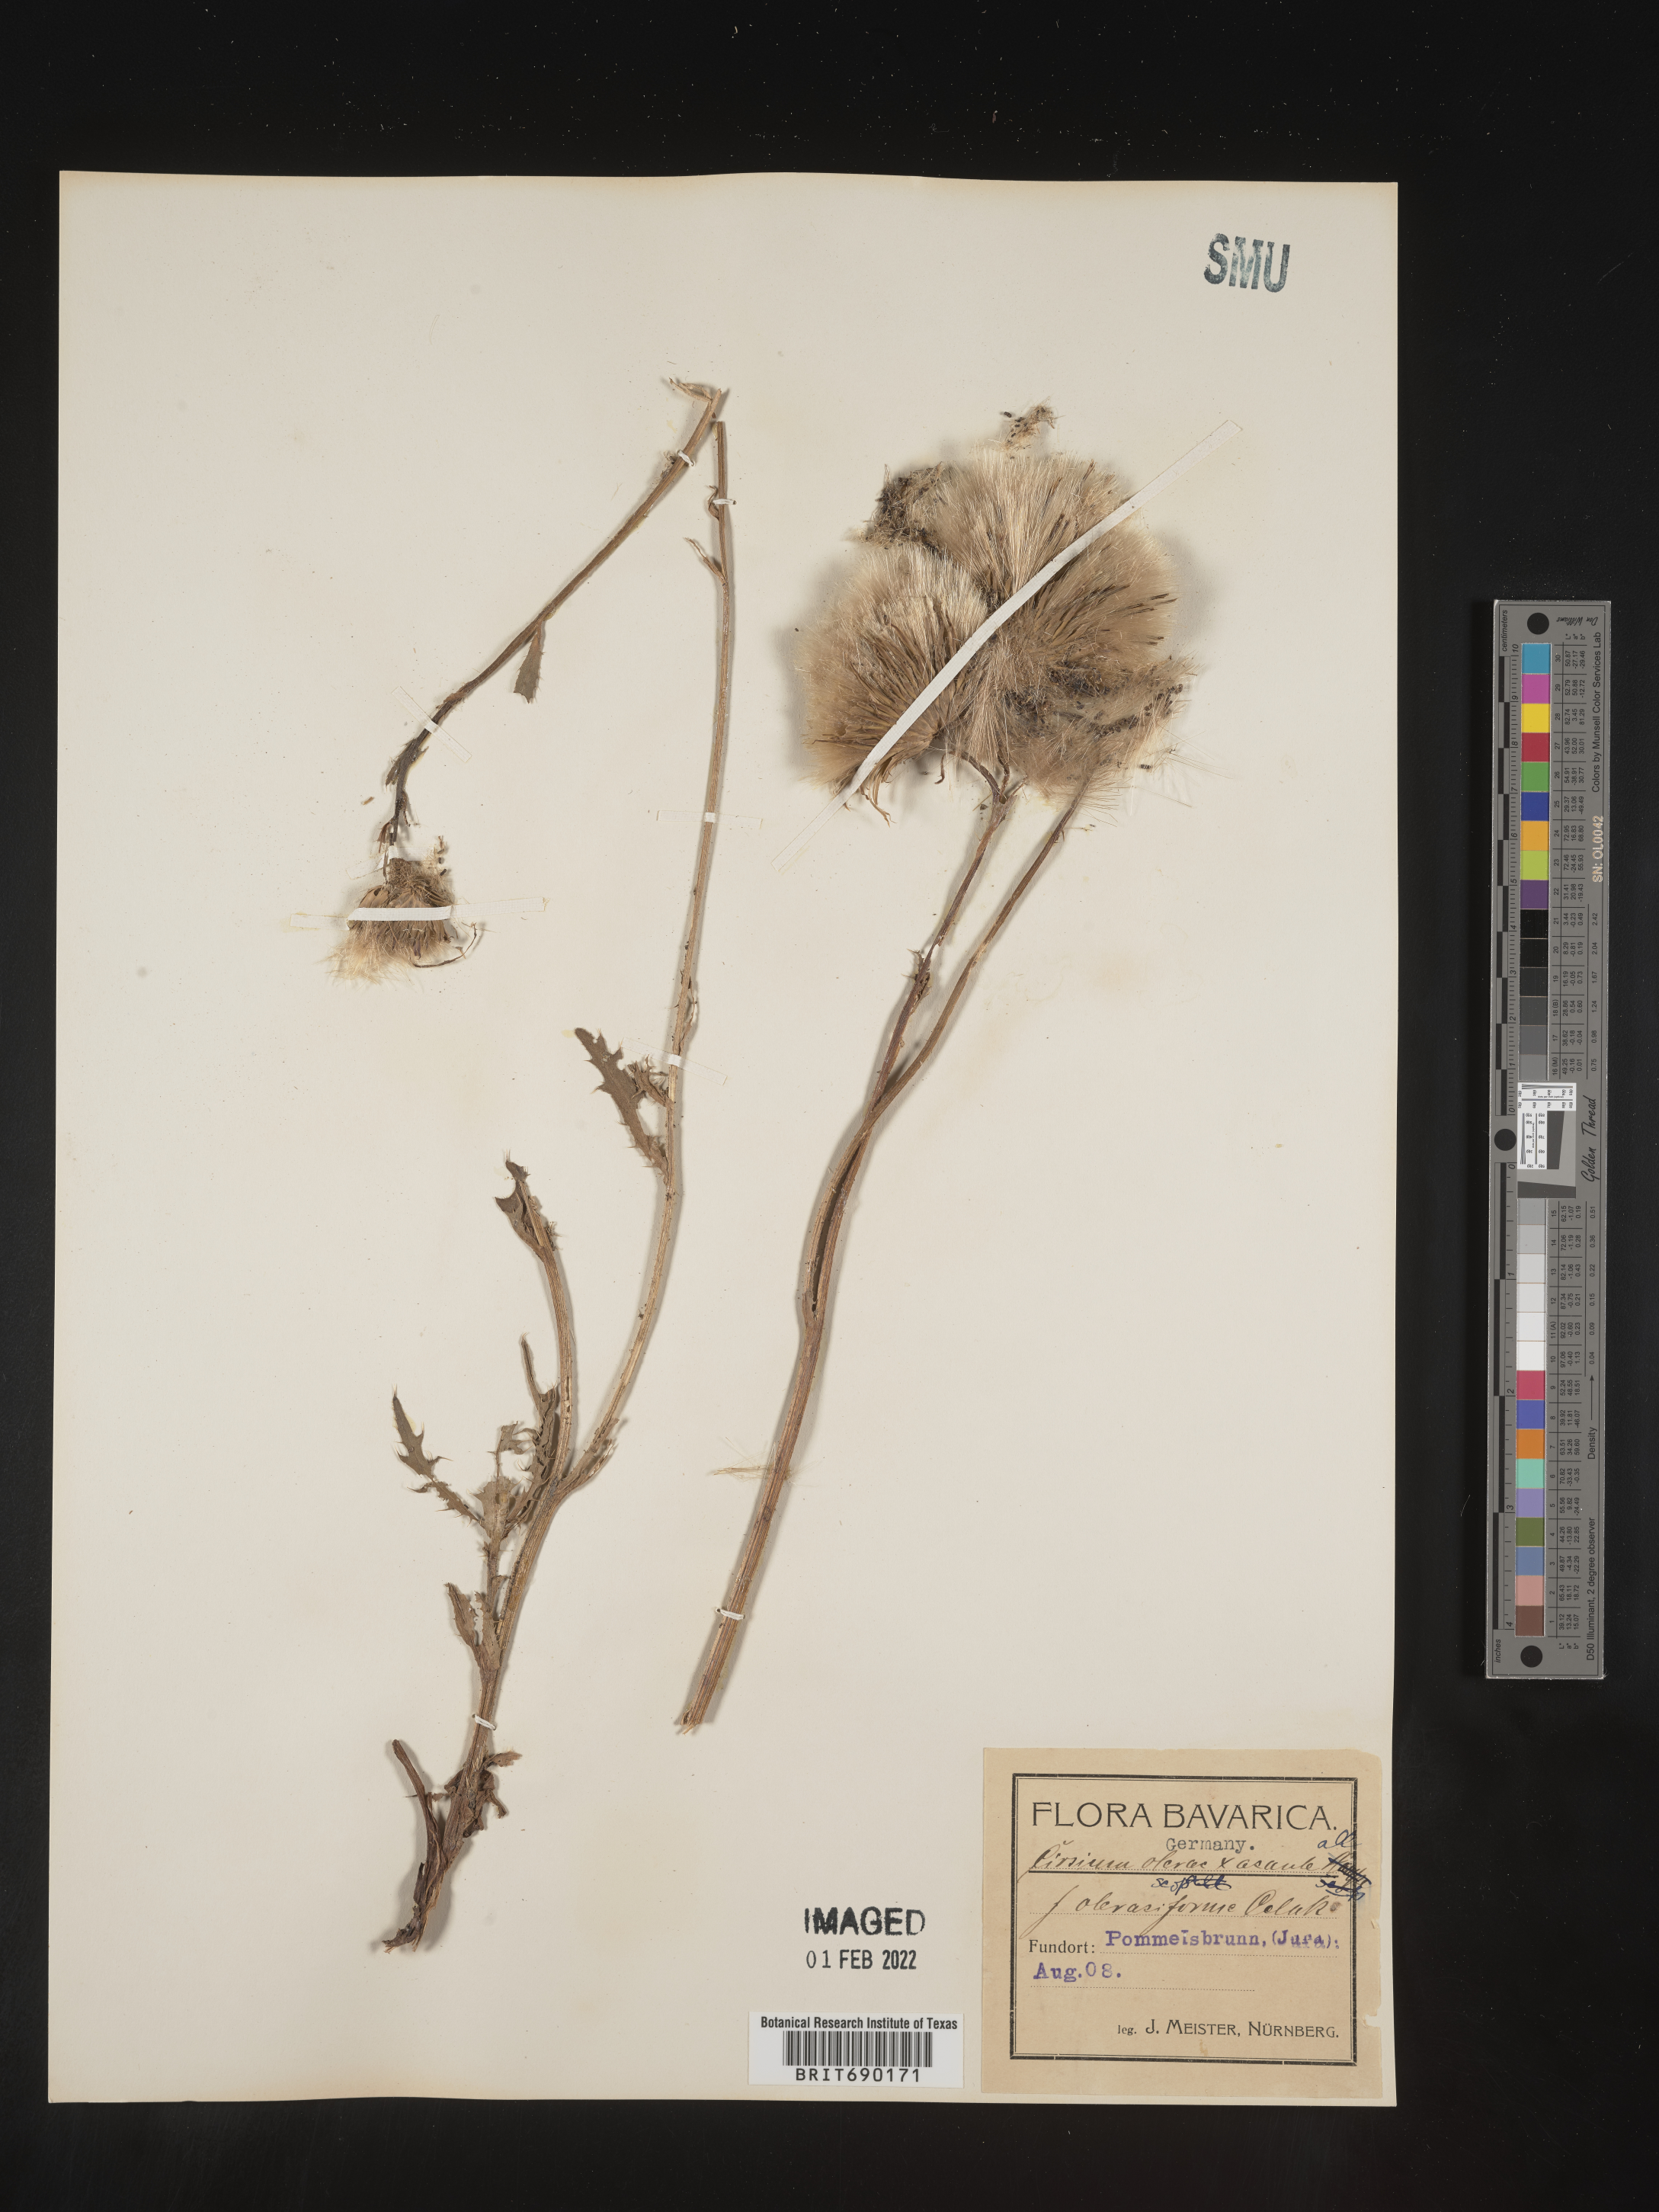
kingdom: Plantae
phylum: Tracheophyta
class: Magnoliopsida
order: Asterales
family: Asteraceae
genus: Cirsium
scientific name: Cirsium
